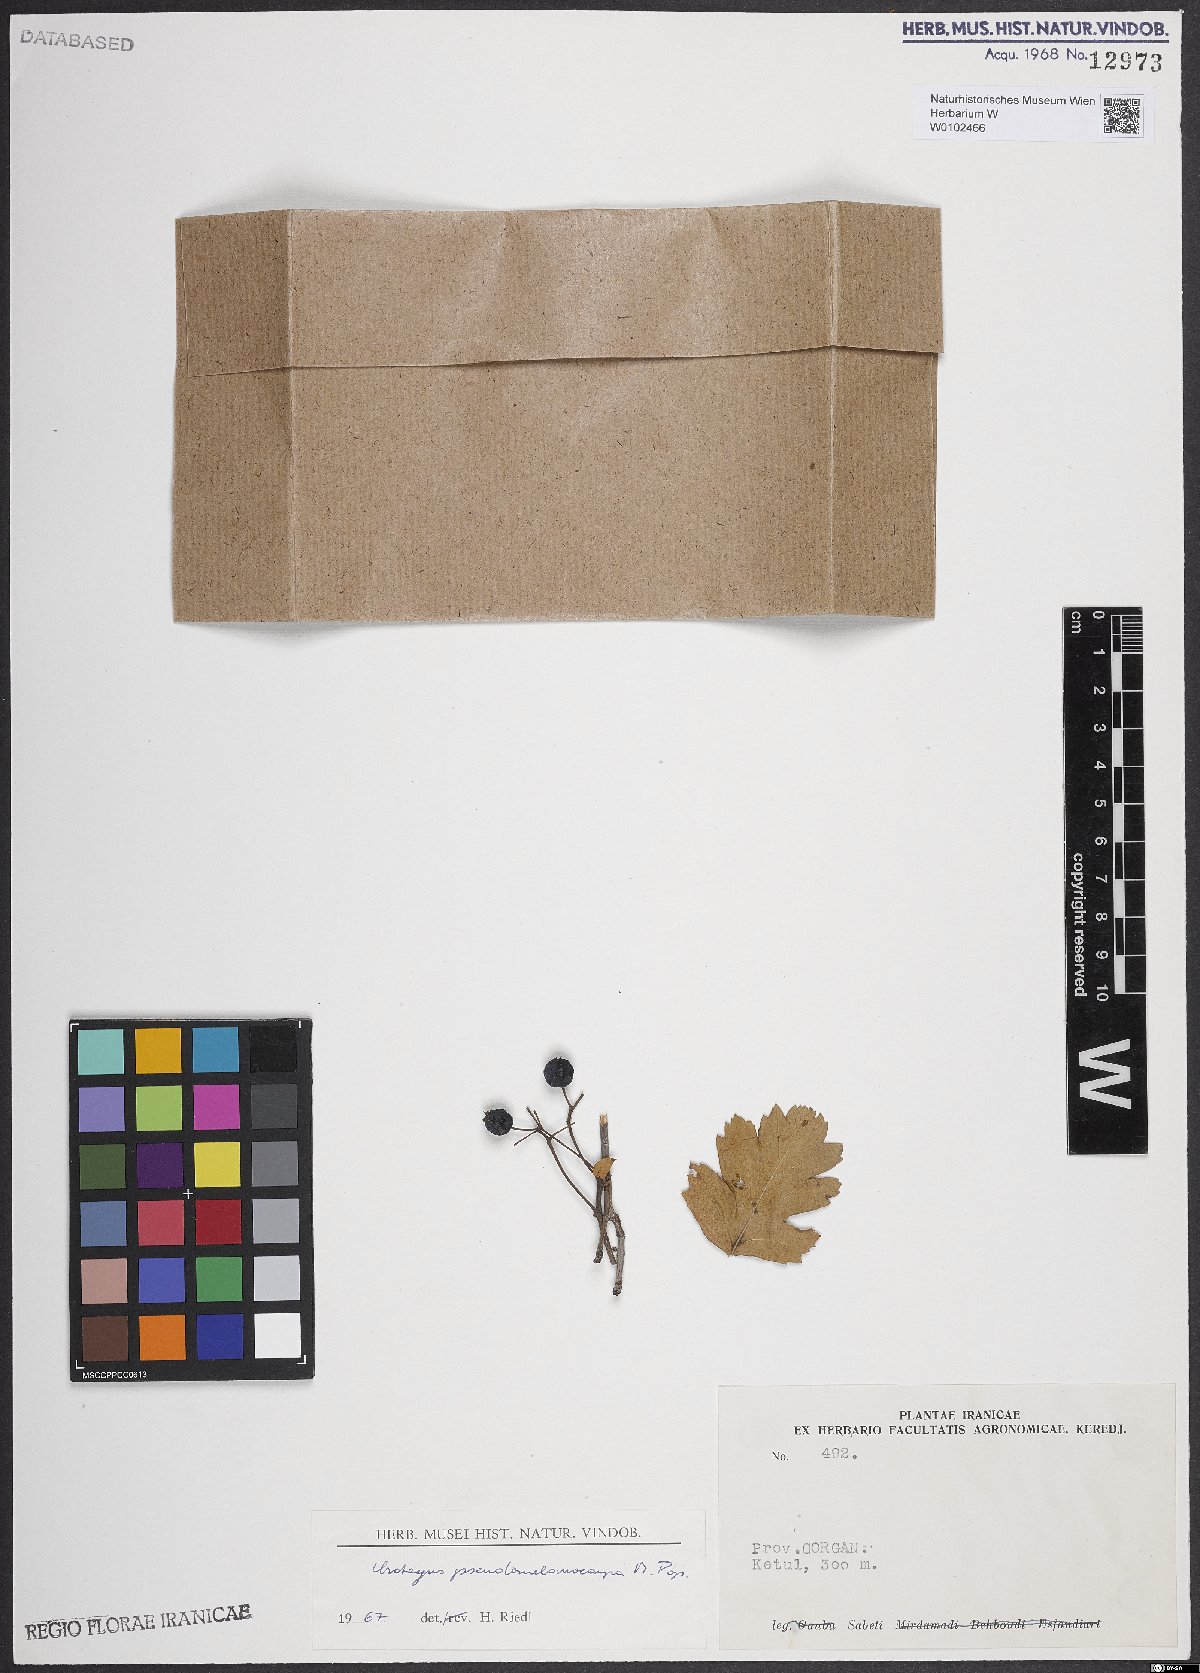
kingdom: Plantae
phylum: Tracheophyta
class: Magnoliopsida
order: Rosales
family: Rosaceae
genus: Crataegus
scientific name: Crataegus pentagyna
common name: Small-flowered black hawthorn
